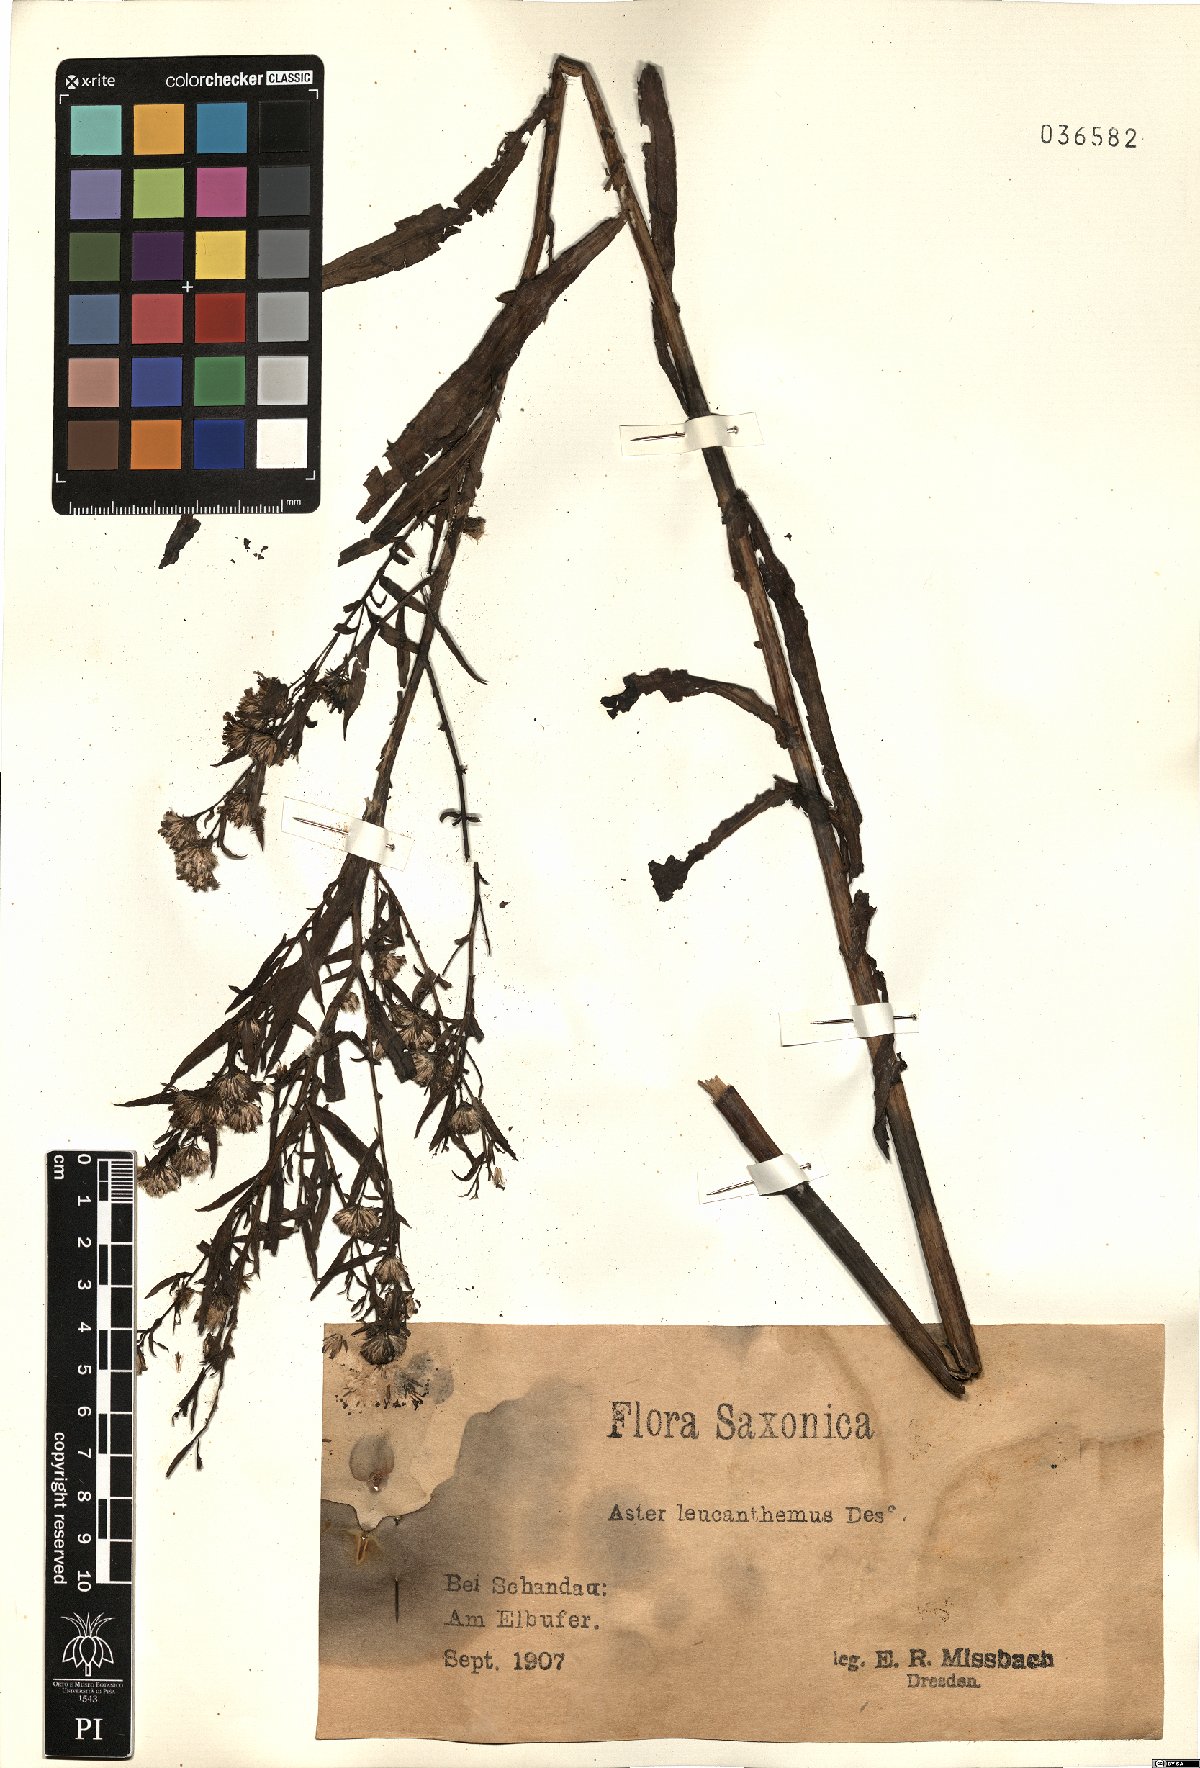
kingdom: Plantae
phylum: Tracheophyta
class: Magnoliopsida
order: Asterales
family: Asteraceae
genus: Symphyotrichum
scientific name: Symphyotrichum tradescantii
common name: Shore aster
